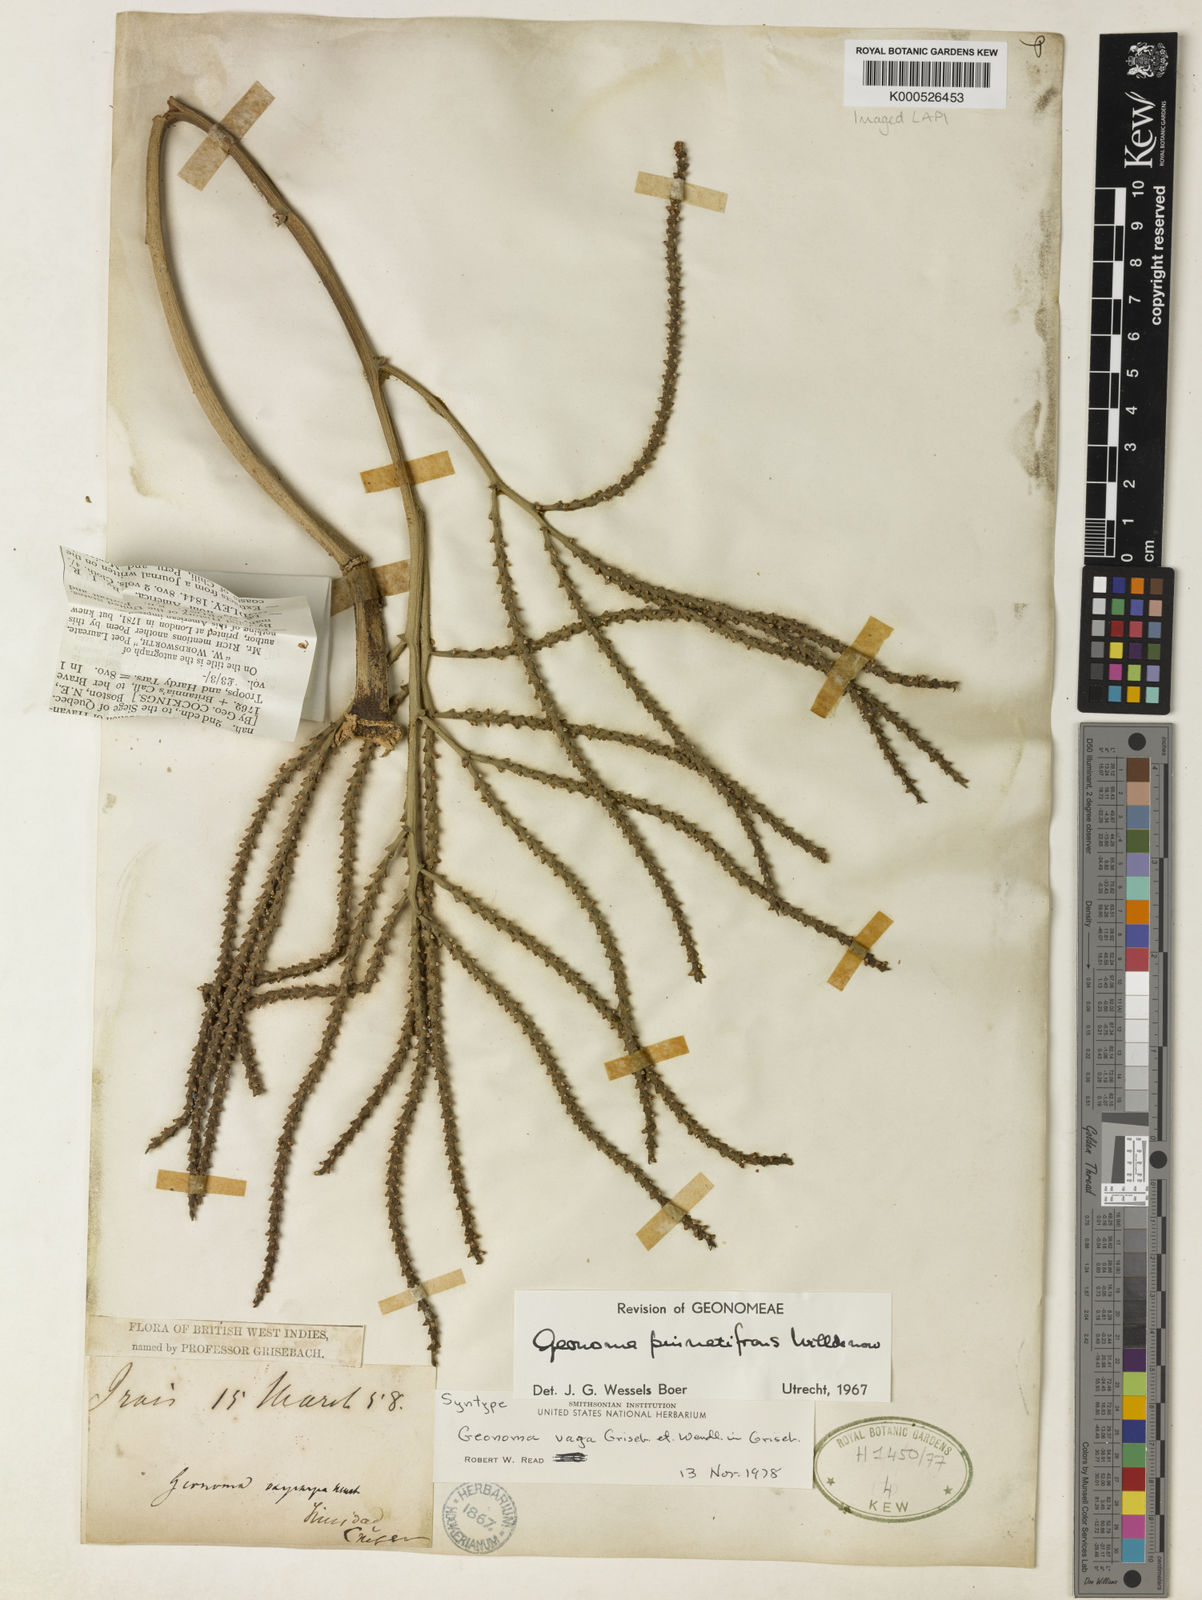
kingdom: Plantae
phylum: Tracheophyta
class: Liliopsida
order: Arecales
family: Arecaceae
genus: Geonoma
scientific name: Geonoma pinnatifrons
